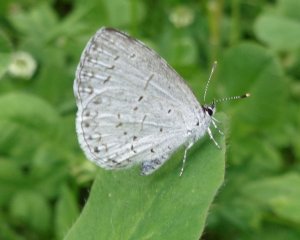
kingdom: Animalia
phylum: Arthropoda
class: Insecta
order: Lepidoptera
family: Lycaenidae
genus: Celastrina
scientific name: Celastrina
